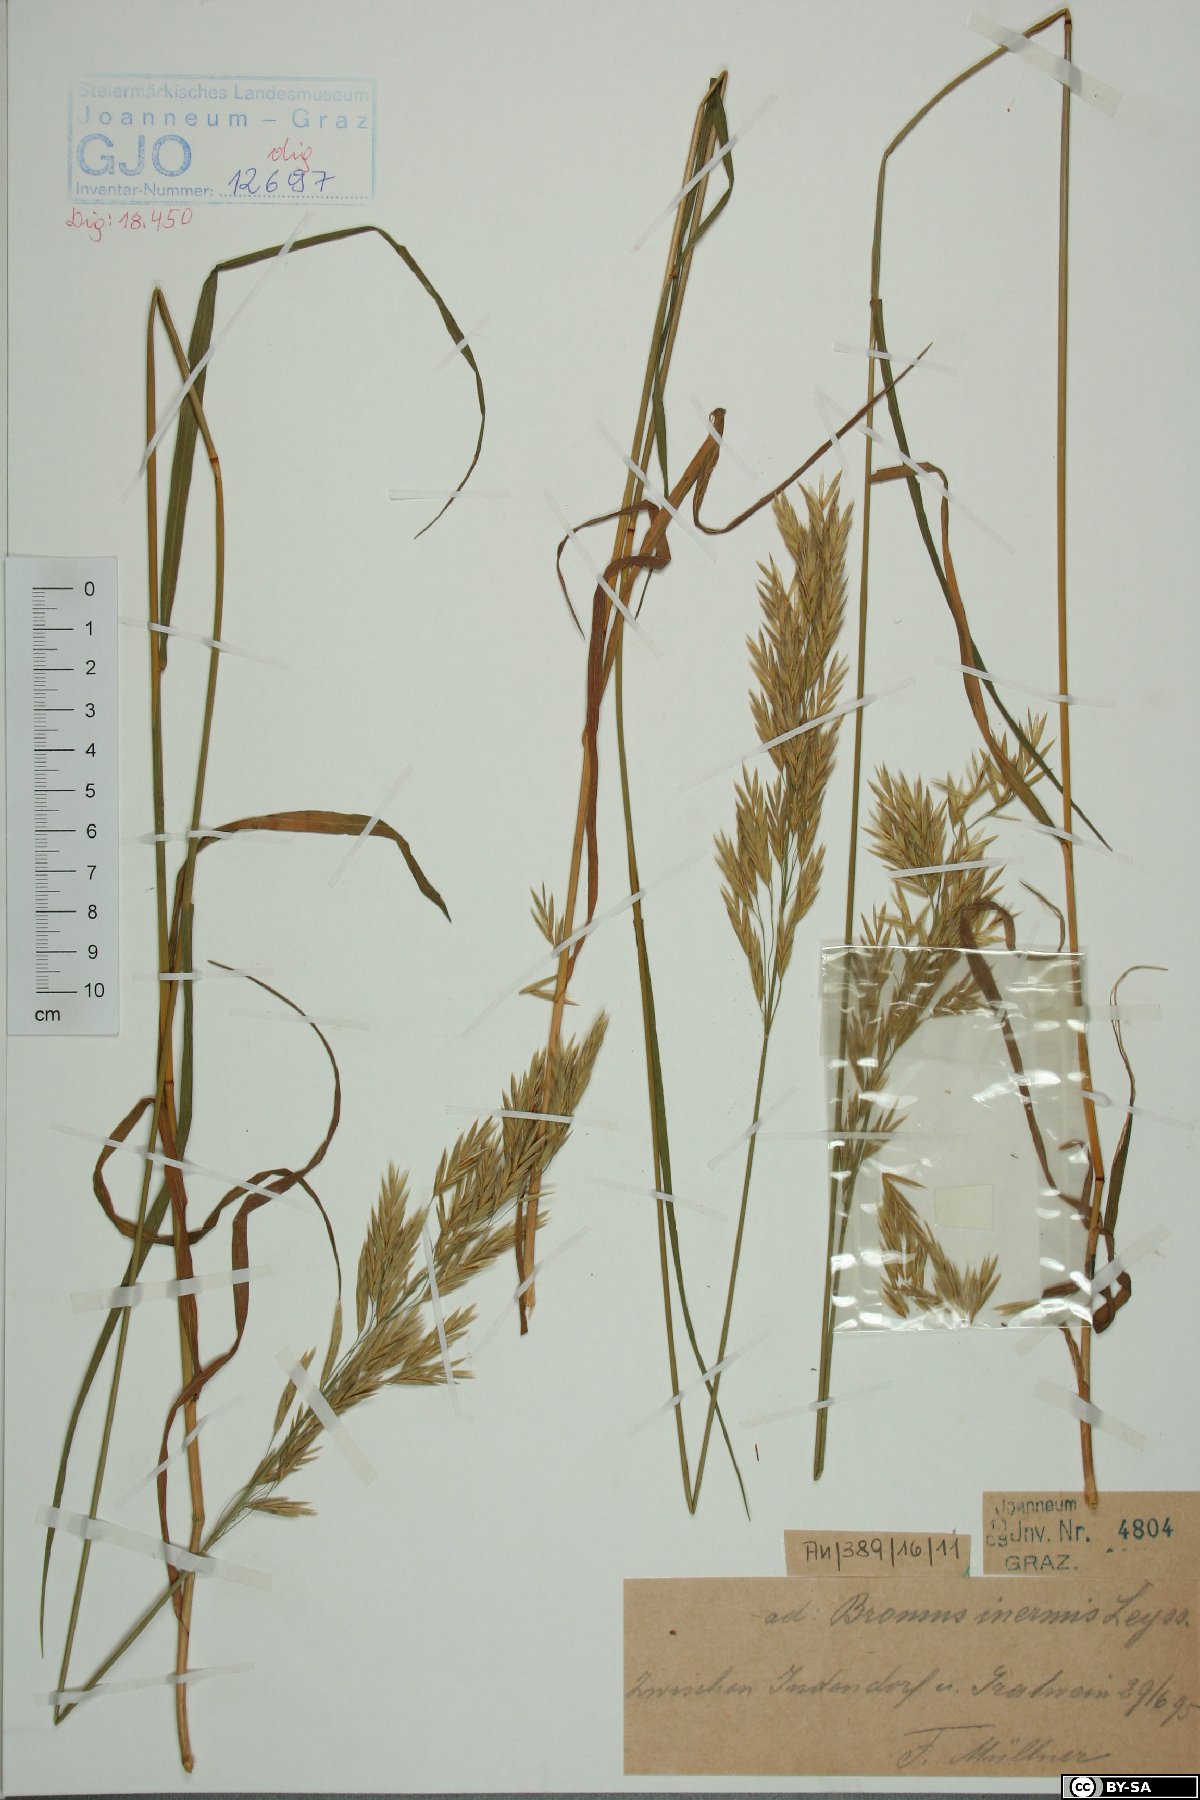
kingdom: Plantae
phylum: Tracheophyta
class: Liliopsida
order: Poales
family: Poaceae
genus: Bromus
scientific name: Bromus inermis
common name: Smooth brome
